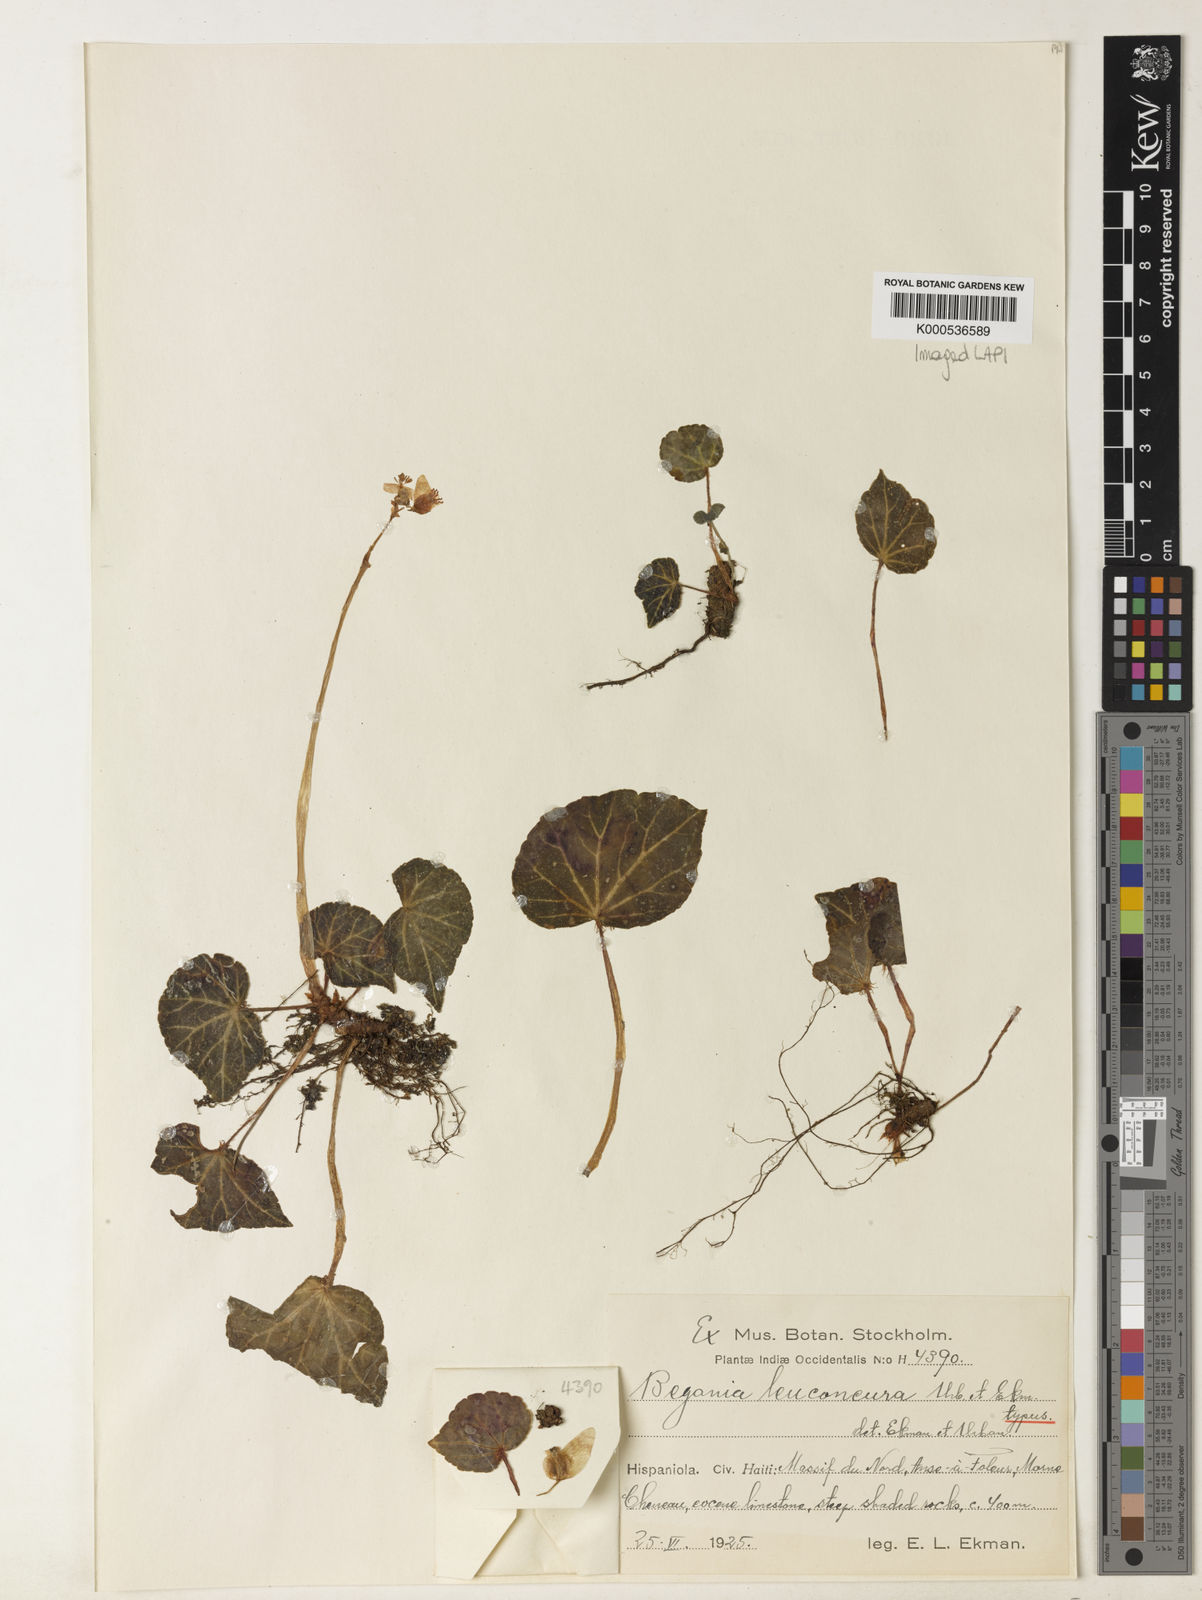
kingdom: Plantae
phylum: Tracheophyta
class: Magnoliopsida
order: Cucurbitales
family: Begoniaceae
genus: Begonia
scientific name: Begonia leuconeura
